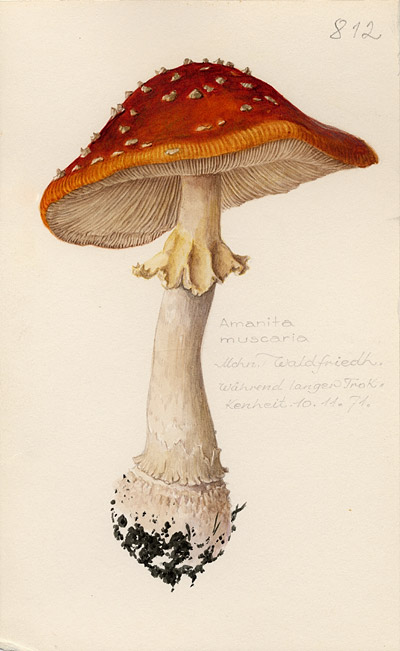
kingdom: Fungi
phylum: Basidiomycota
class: Agaricomycetes
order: Agaricales
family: Amanitaceae
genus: Amanita
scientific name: Amanita muscaria
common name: Fly agaric
